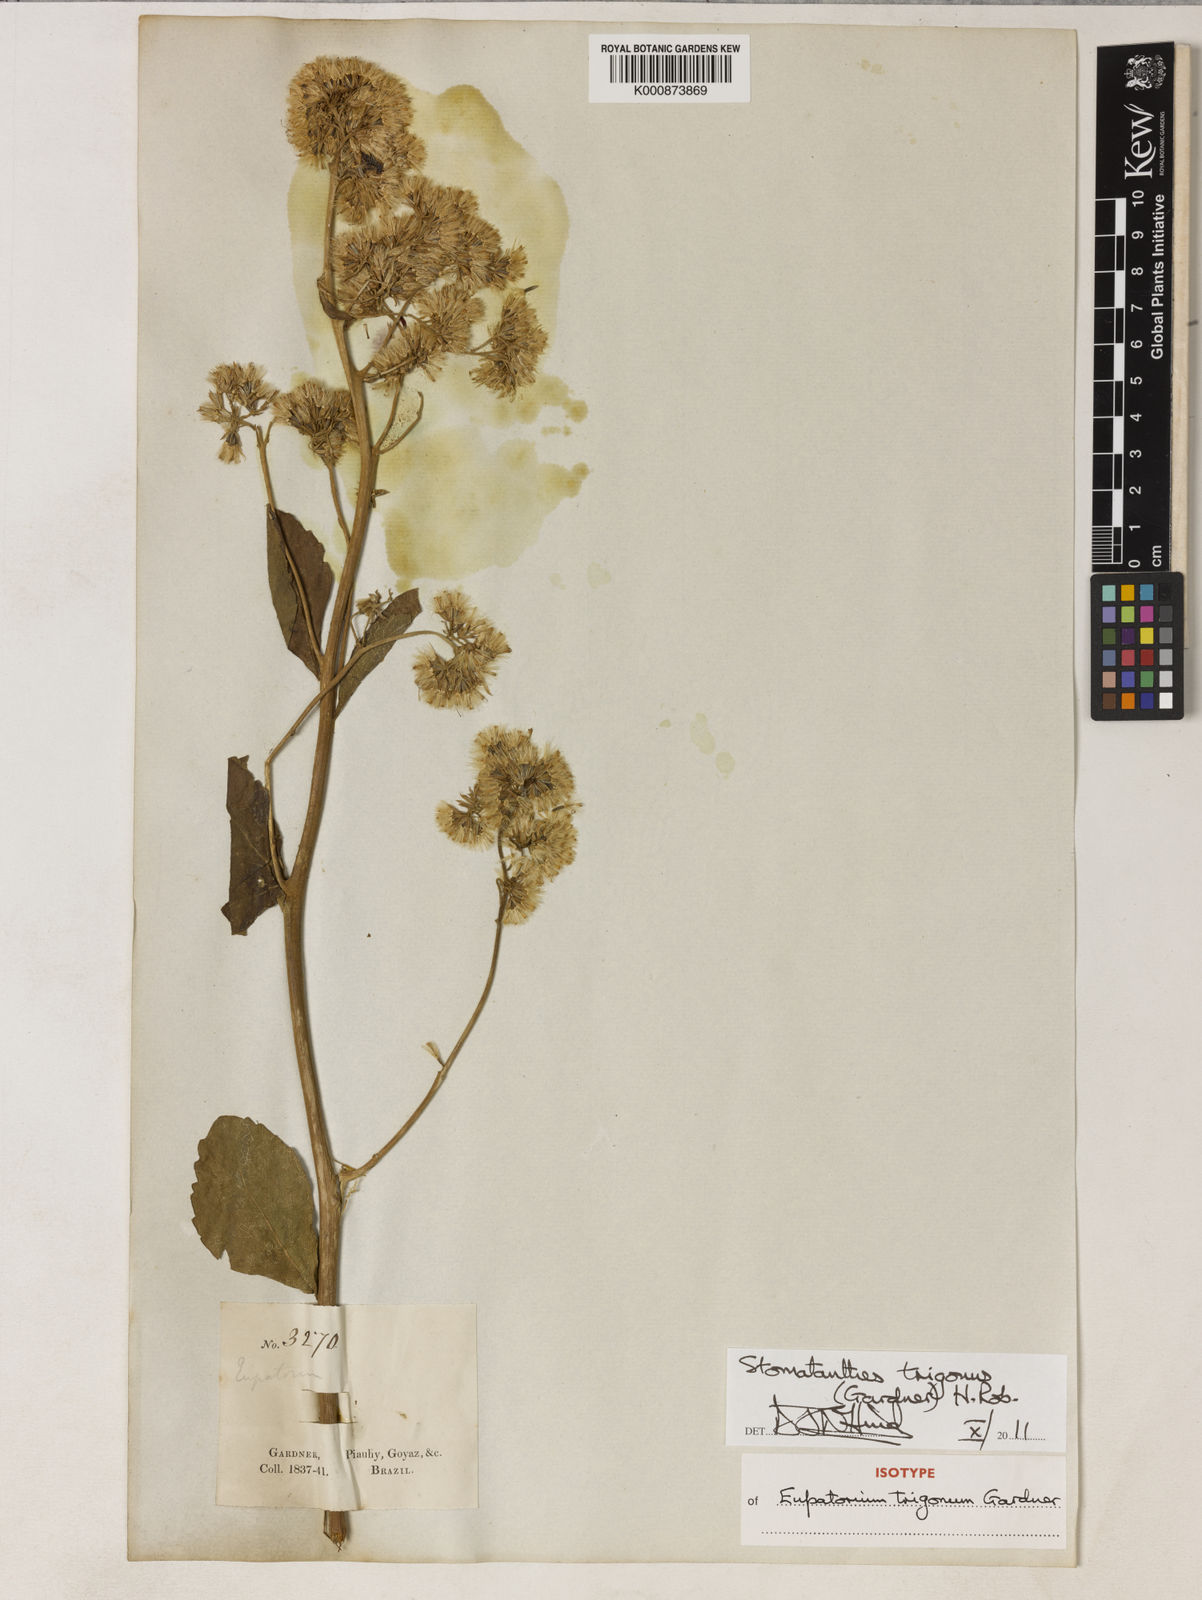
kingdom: Plantae
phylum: Tracheophyta
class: Magnoliopsida
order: Asterales
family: Asteraceae
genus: Stomatanthes
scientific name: Stomatanthes trigonus
